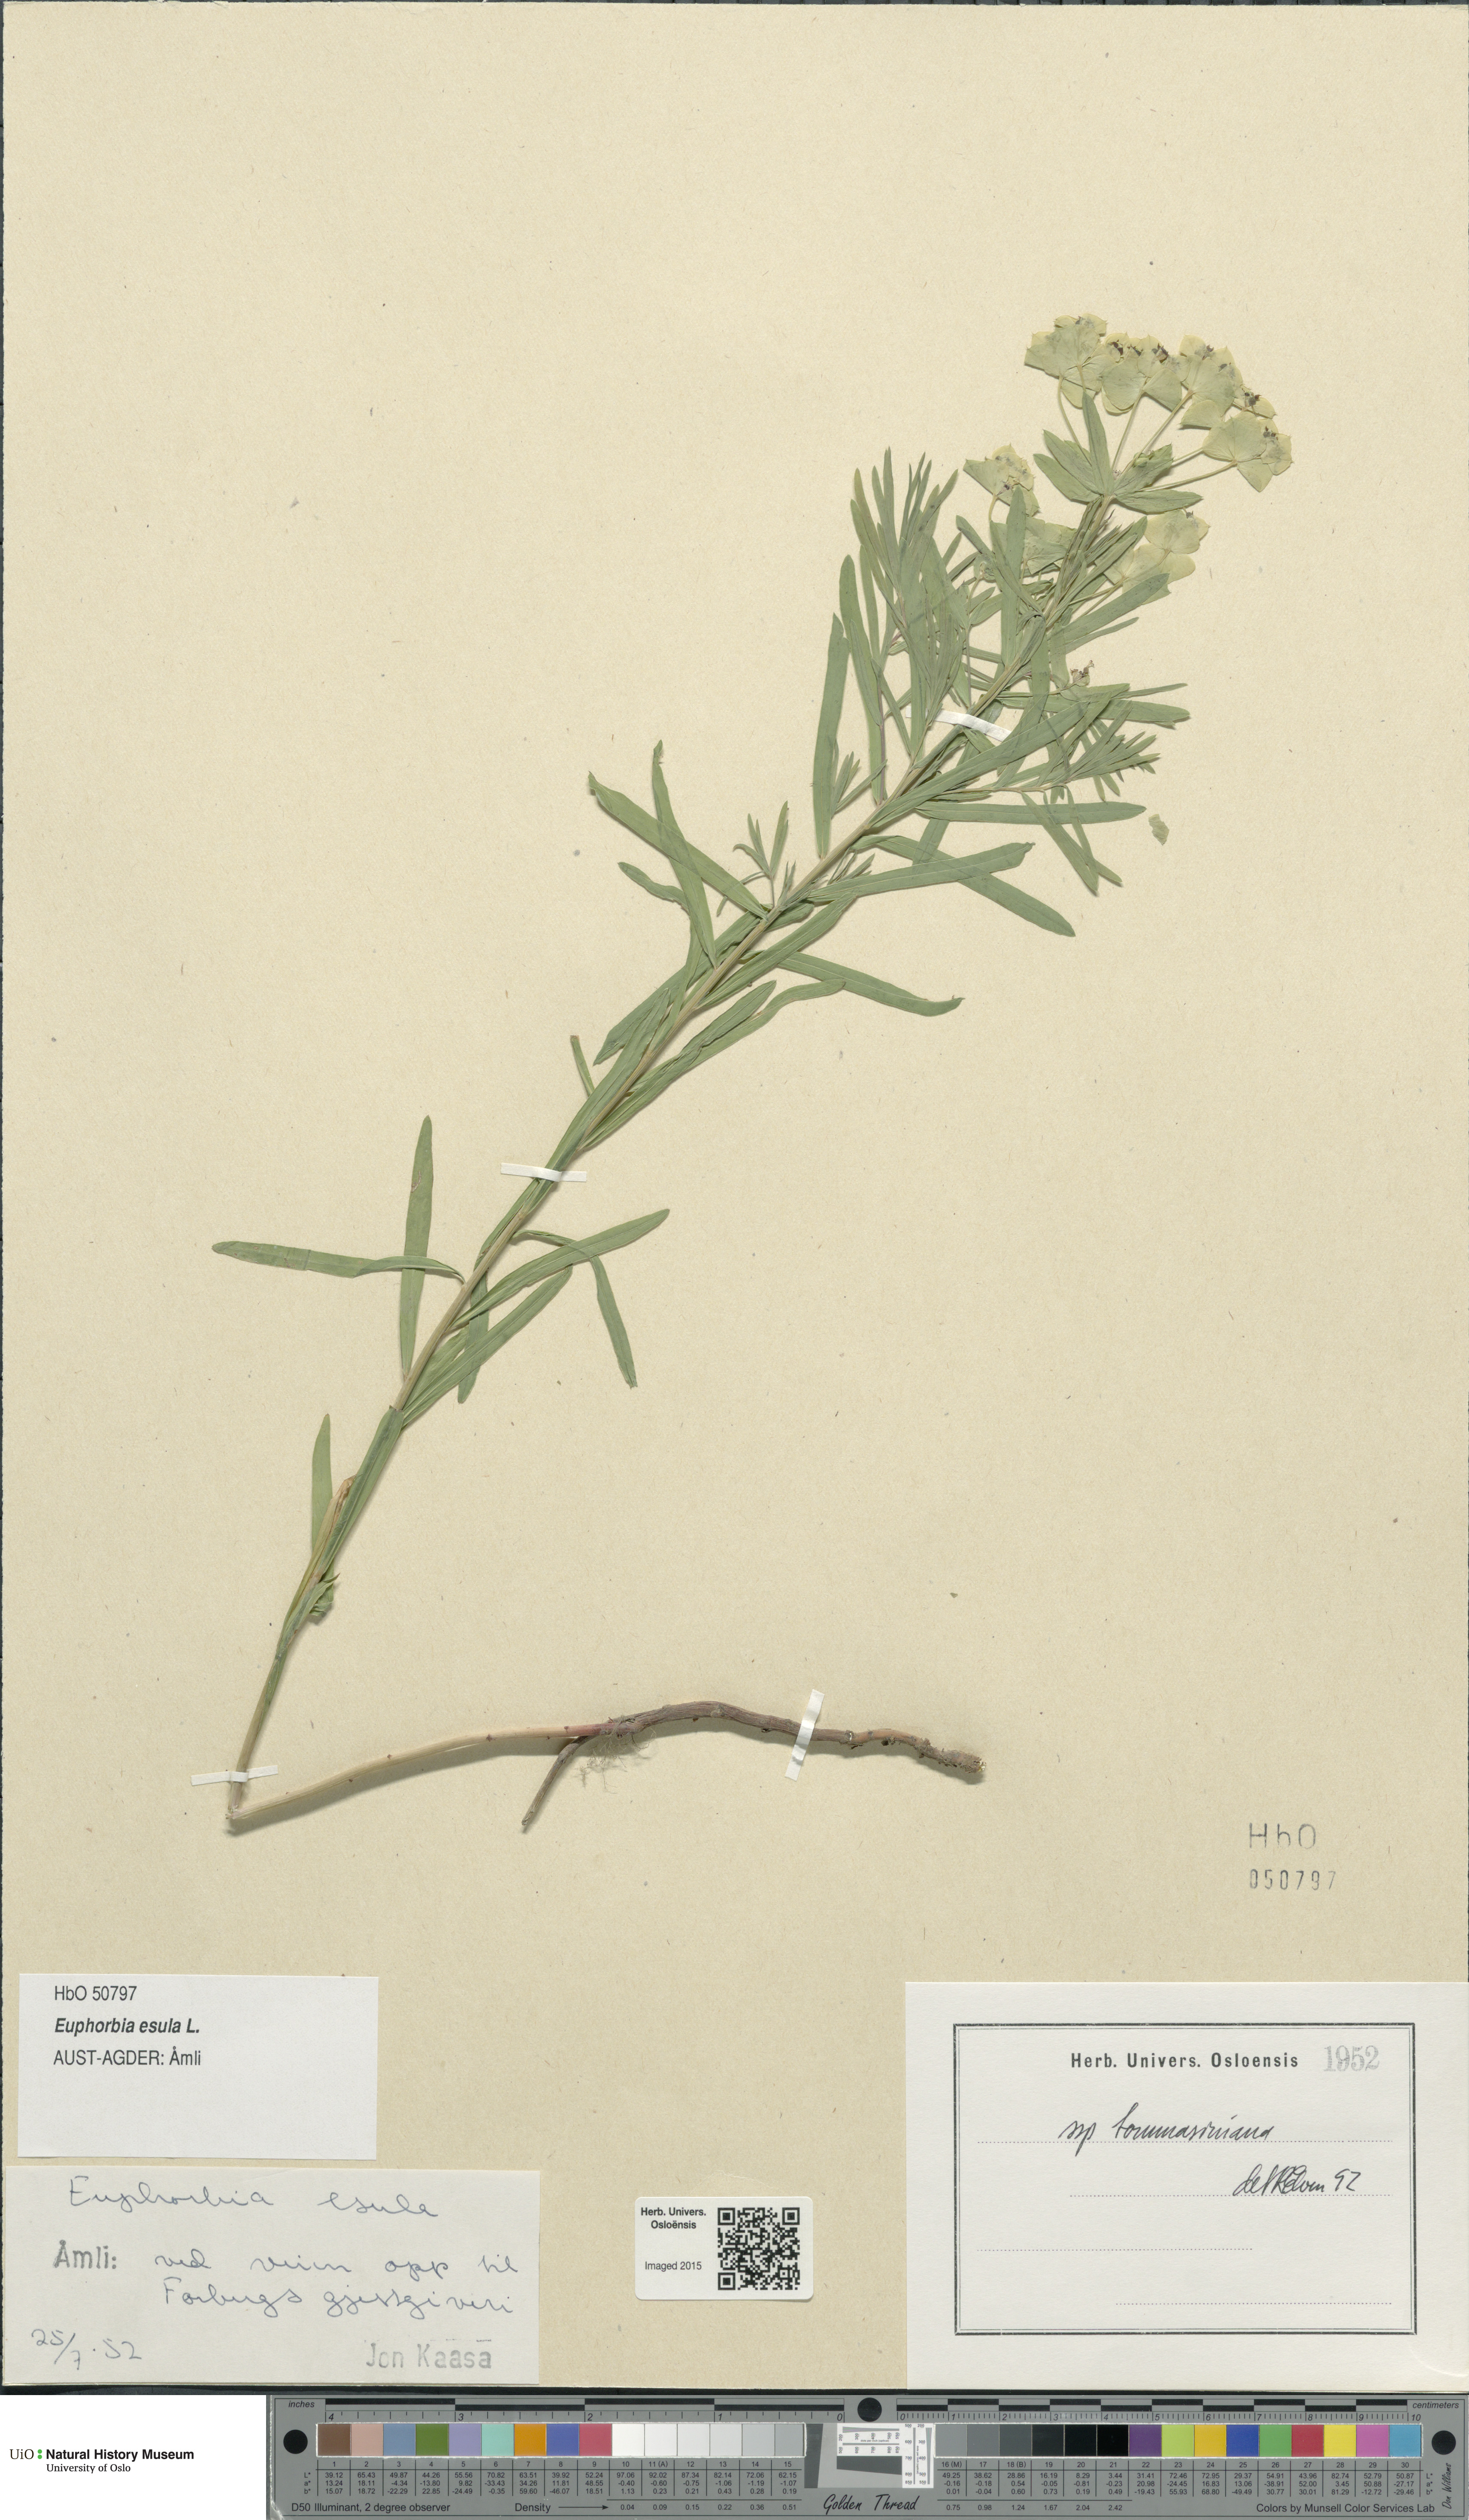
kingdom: Plantae
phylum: Tracheophyta
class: Magnoliopsida
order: Malpighiales
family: Euphorbiaceae
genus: Euphorbia
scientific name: Euphorbia tommasiniana
